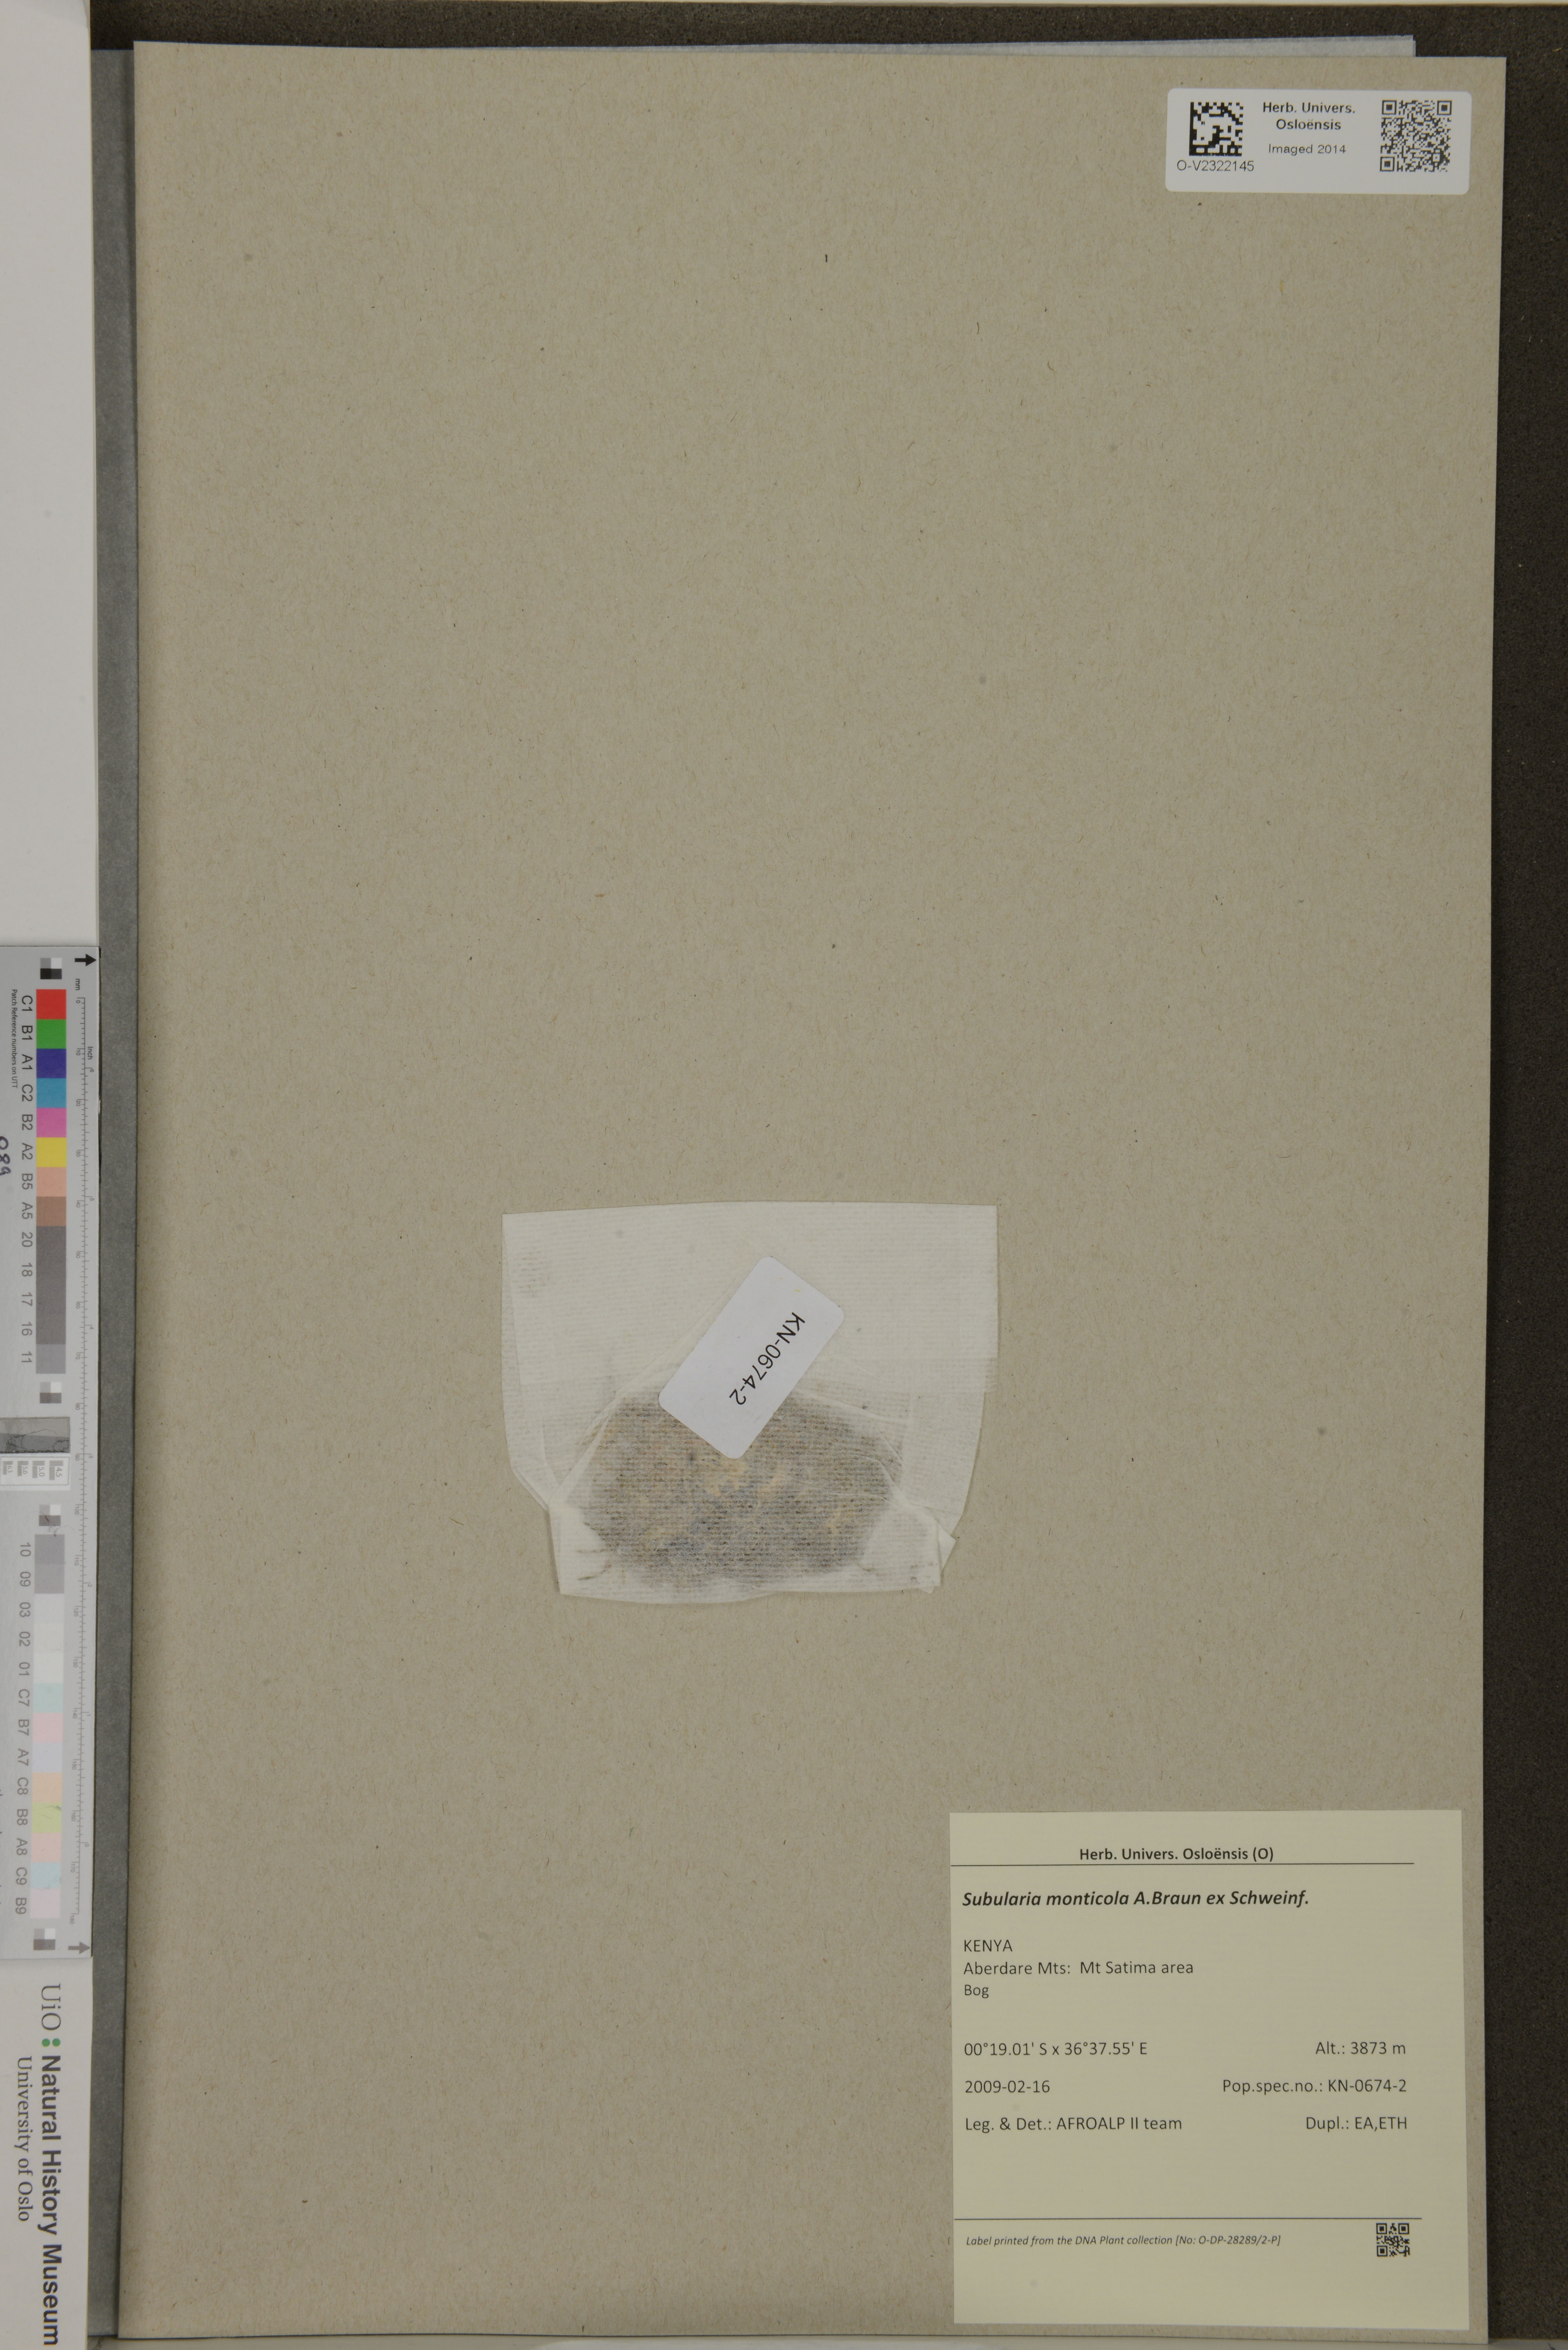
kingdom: Plantae
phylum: Tracheophyta
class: Magnoliopsida
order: Brassicales
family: Brassicaceae
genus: Subularia
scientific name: Subularia monticola
